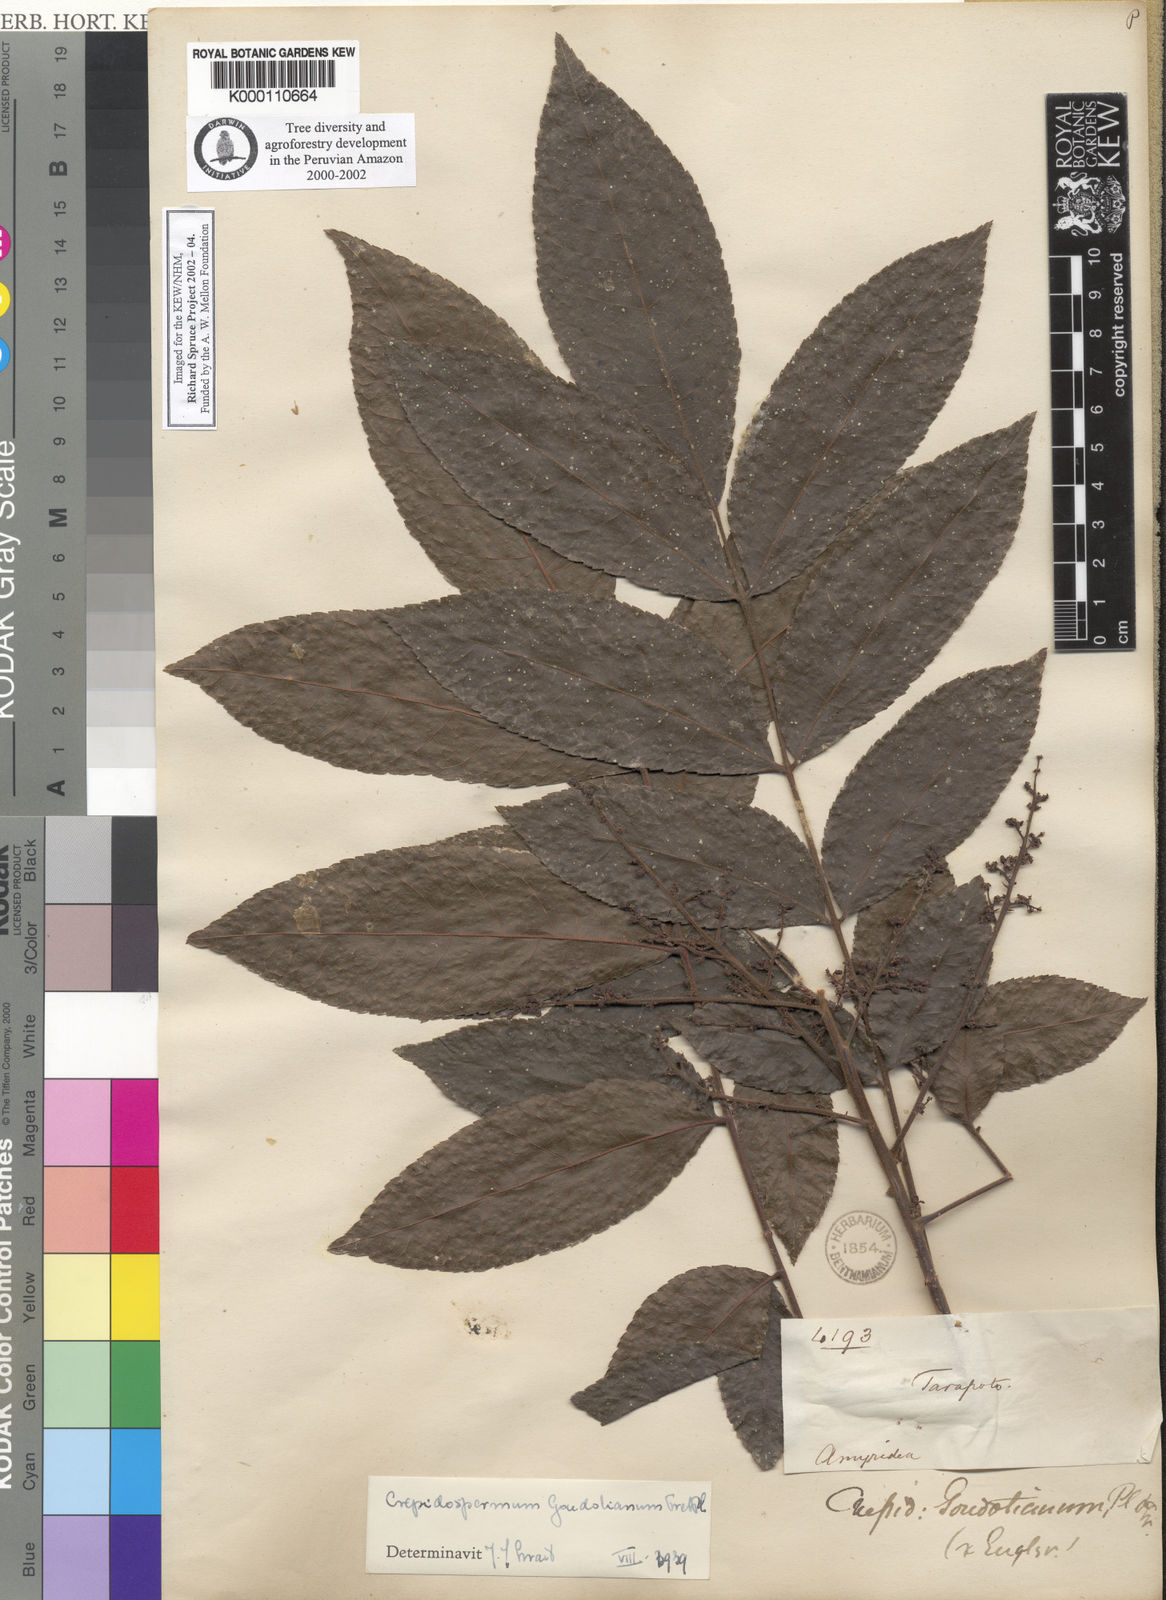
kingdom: Plantae
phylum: Tracheophyta
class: Magnoliopsida
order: Sapindales
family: Burseraceae
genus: Crepidospermum
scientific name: Crepidospermum goudotianum
